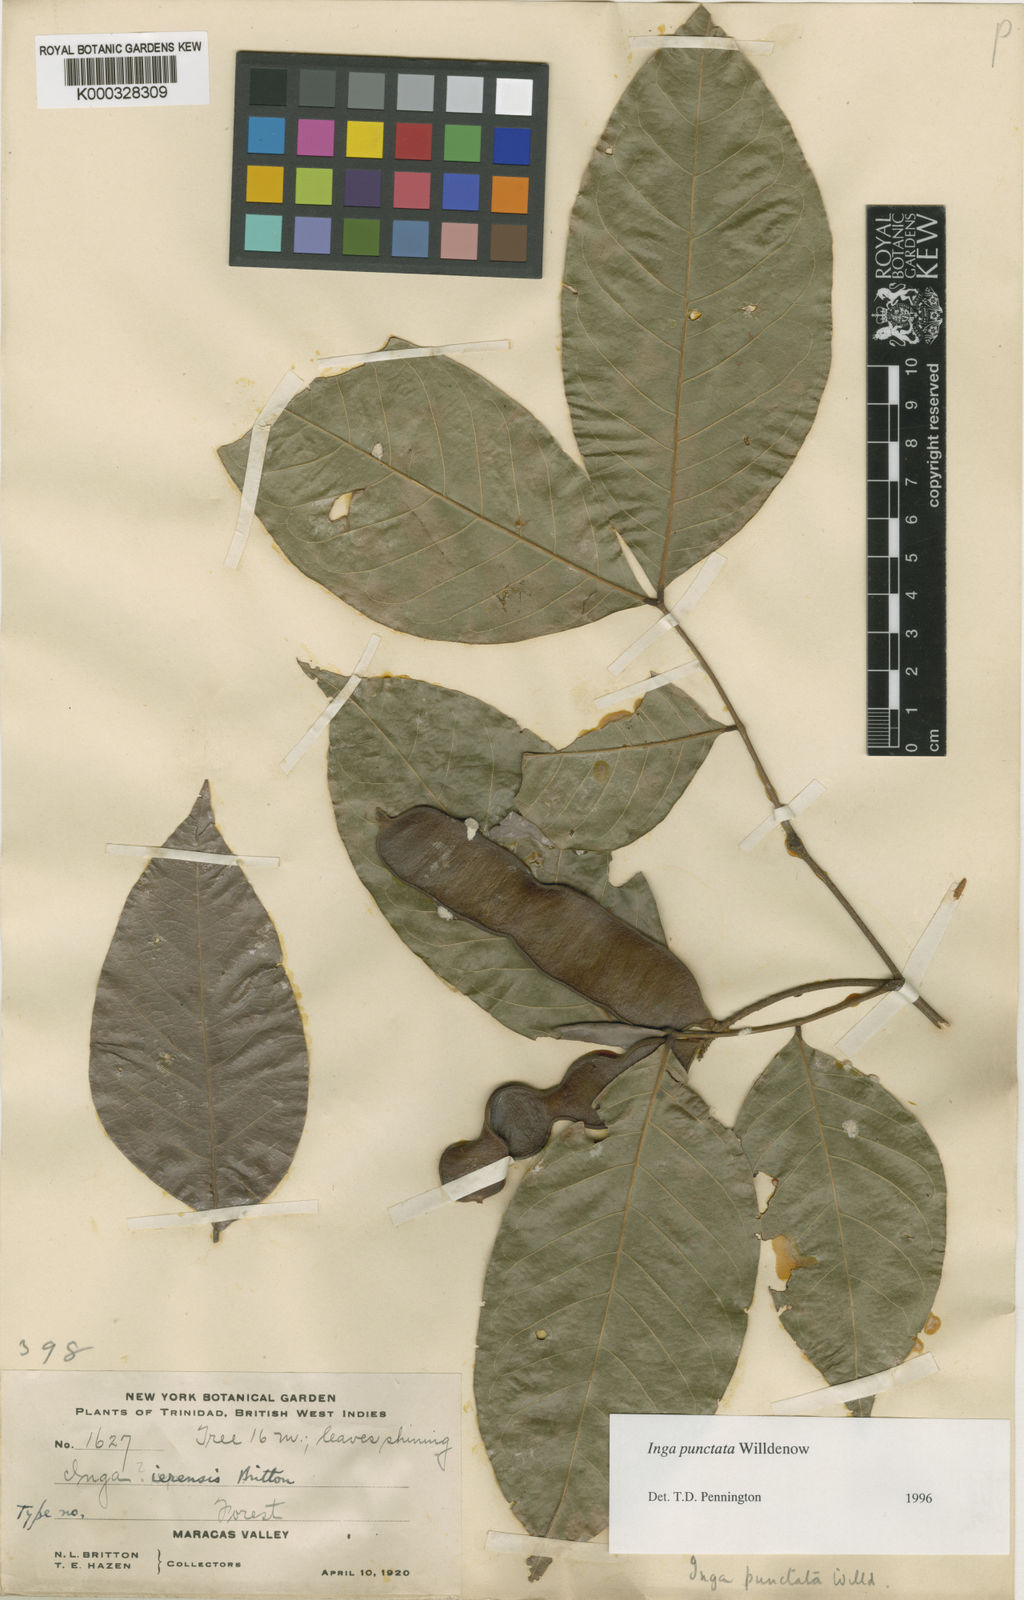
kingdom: Plantae
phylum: Tracheophyta
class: Magnoliopsida
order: Fabales
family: Fabaceae
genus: Inga
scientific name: Inga punctata
